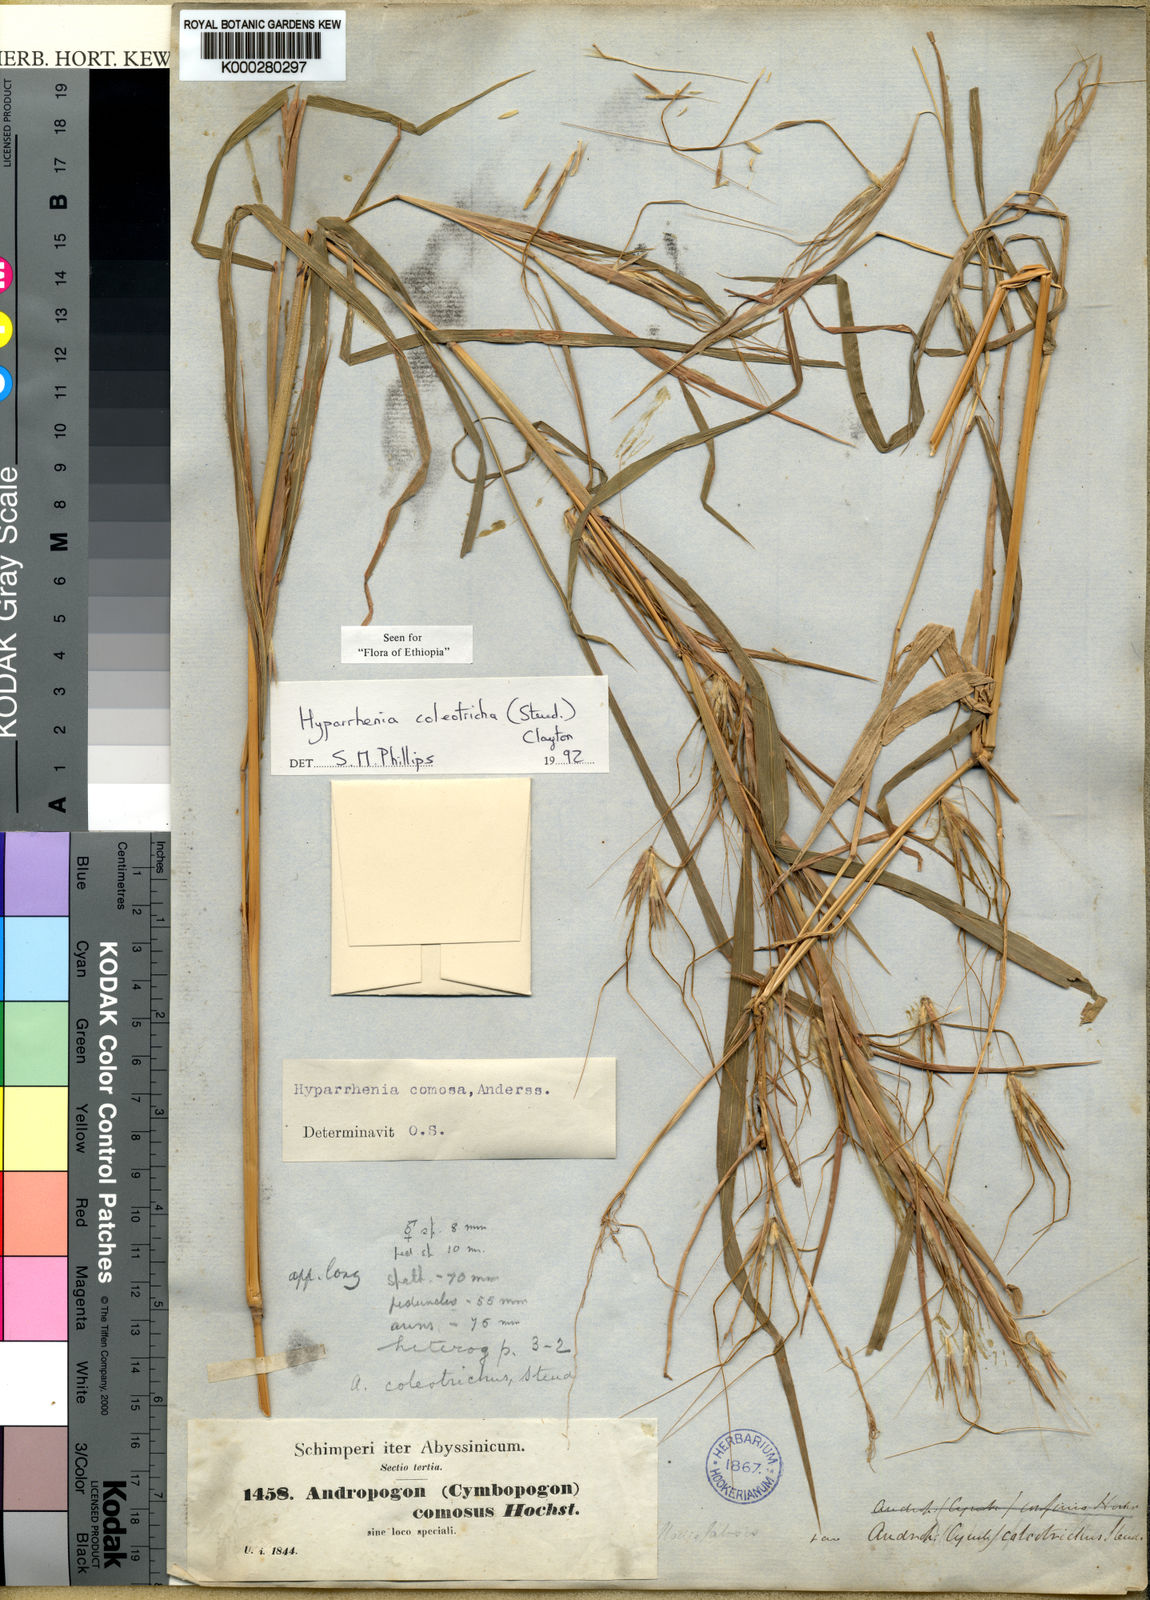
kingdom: Plantae
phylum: Tracheophyta
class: Liliopsida
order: Poales
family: Poaceae
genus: Hyparrhenia
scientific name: Hyparrhenia coleotricha
